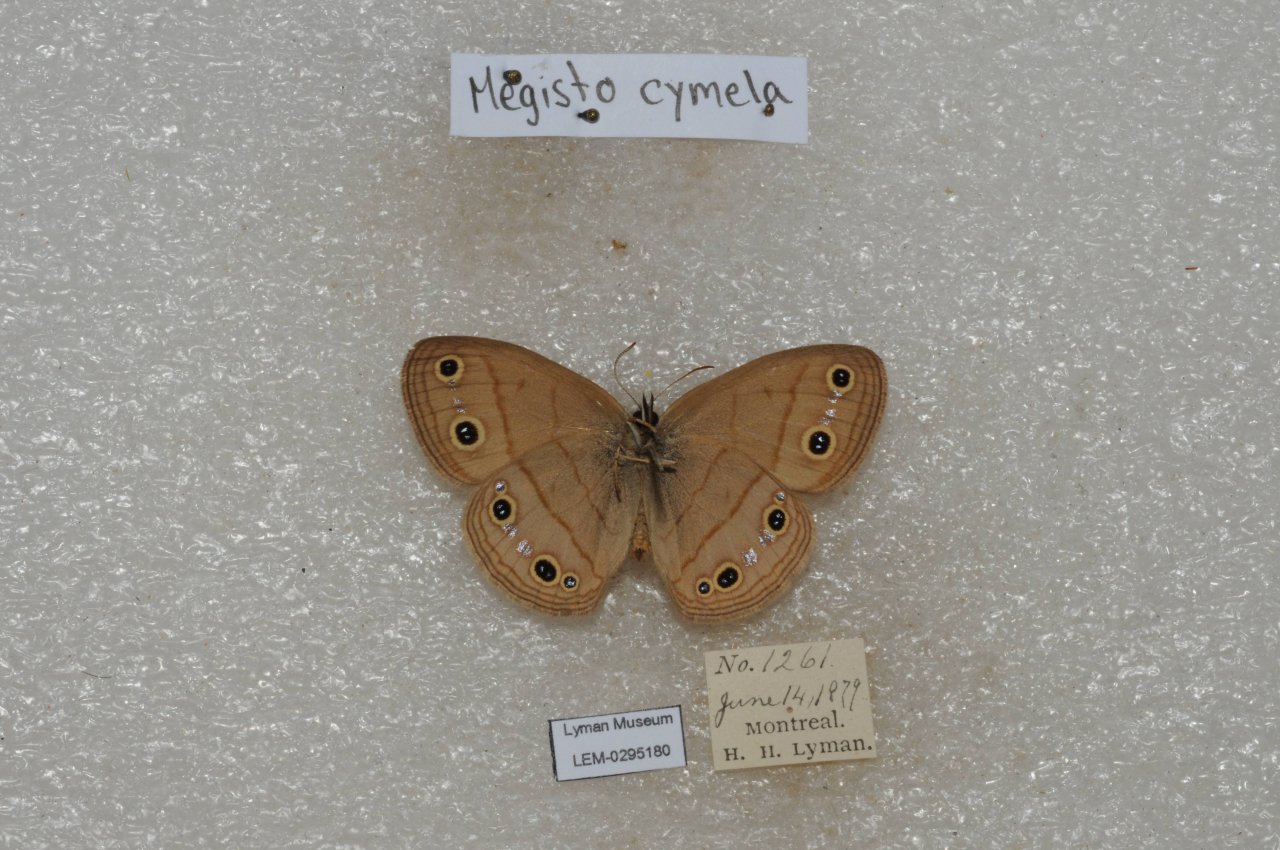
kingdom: Animalia
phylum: Arthropoda
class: Insecta
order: Lepidoptera
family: Nymphalidae
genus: Euptychia
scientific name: Euptychia cymela
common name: Little Wood Satyr
